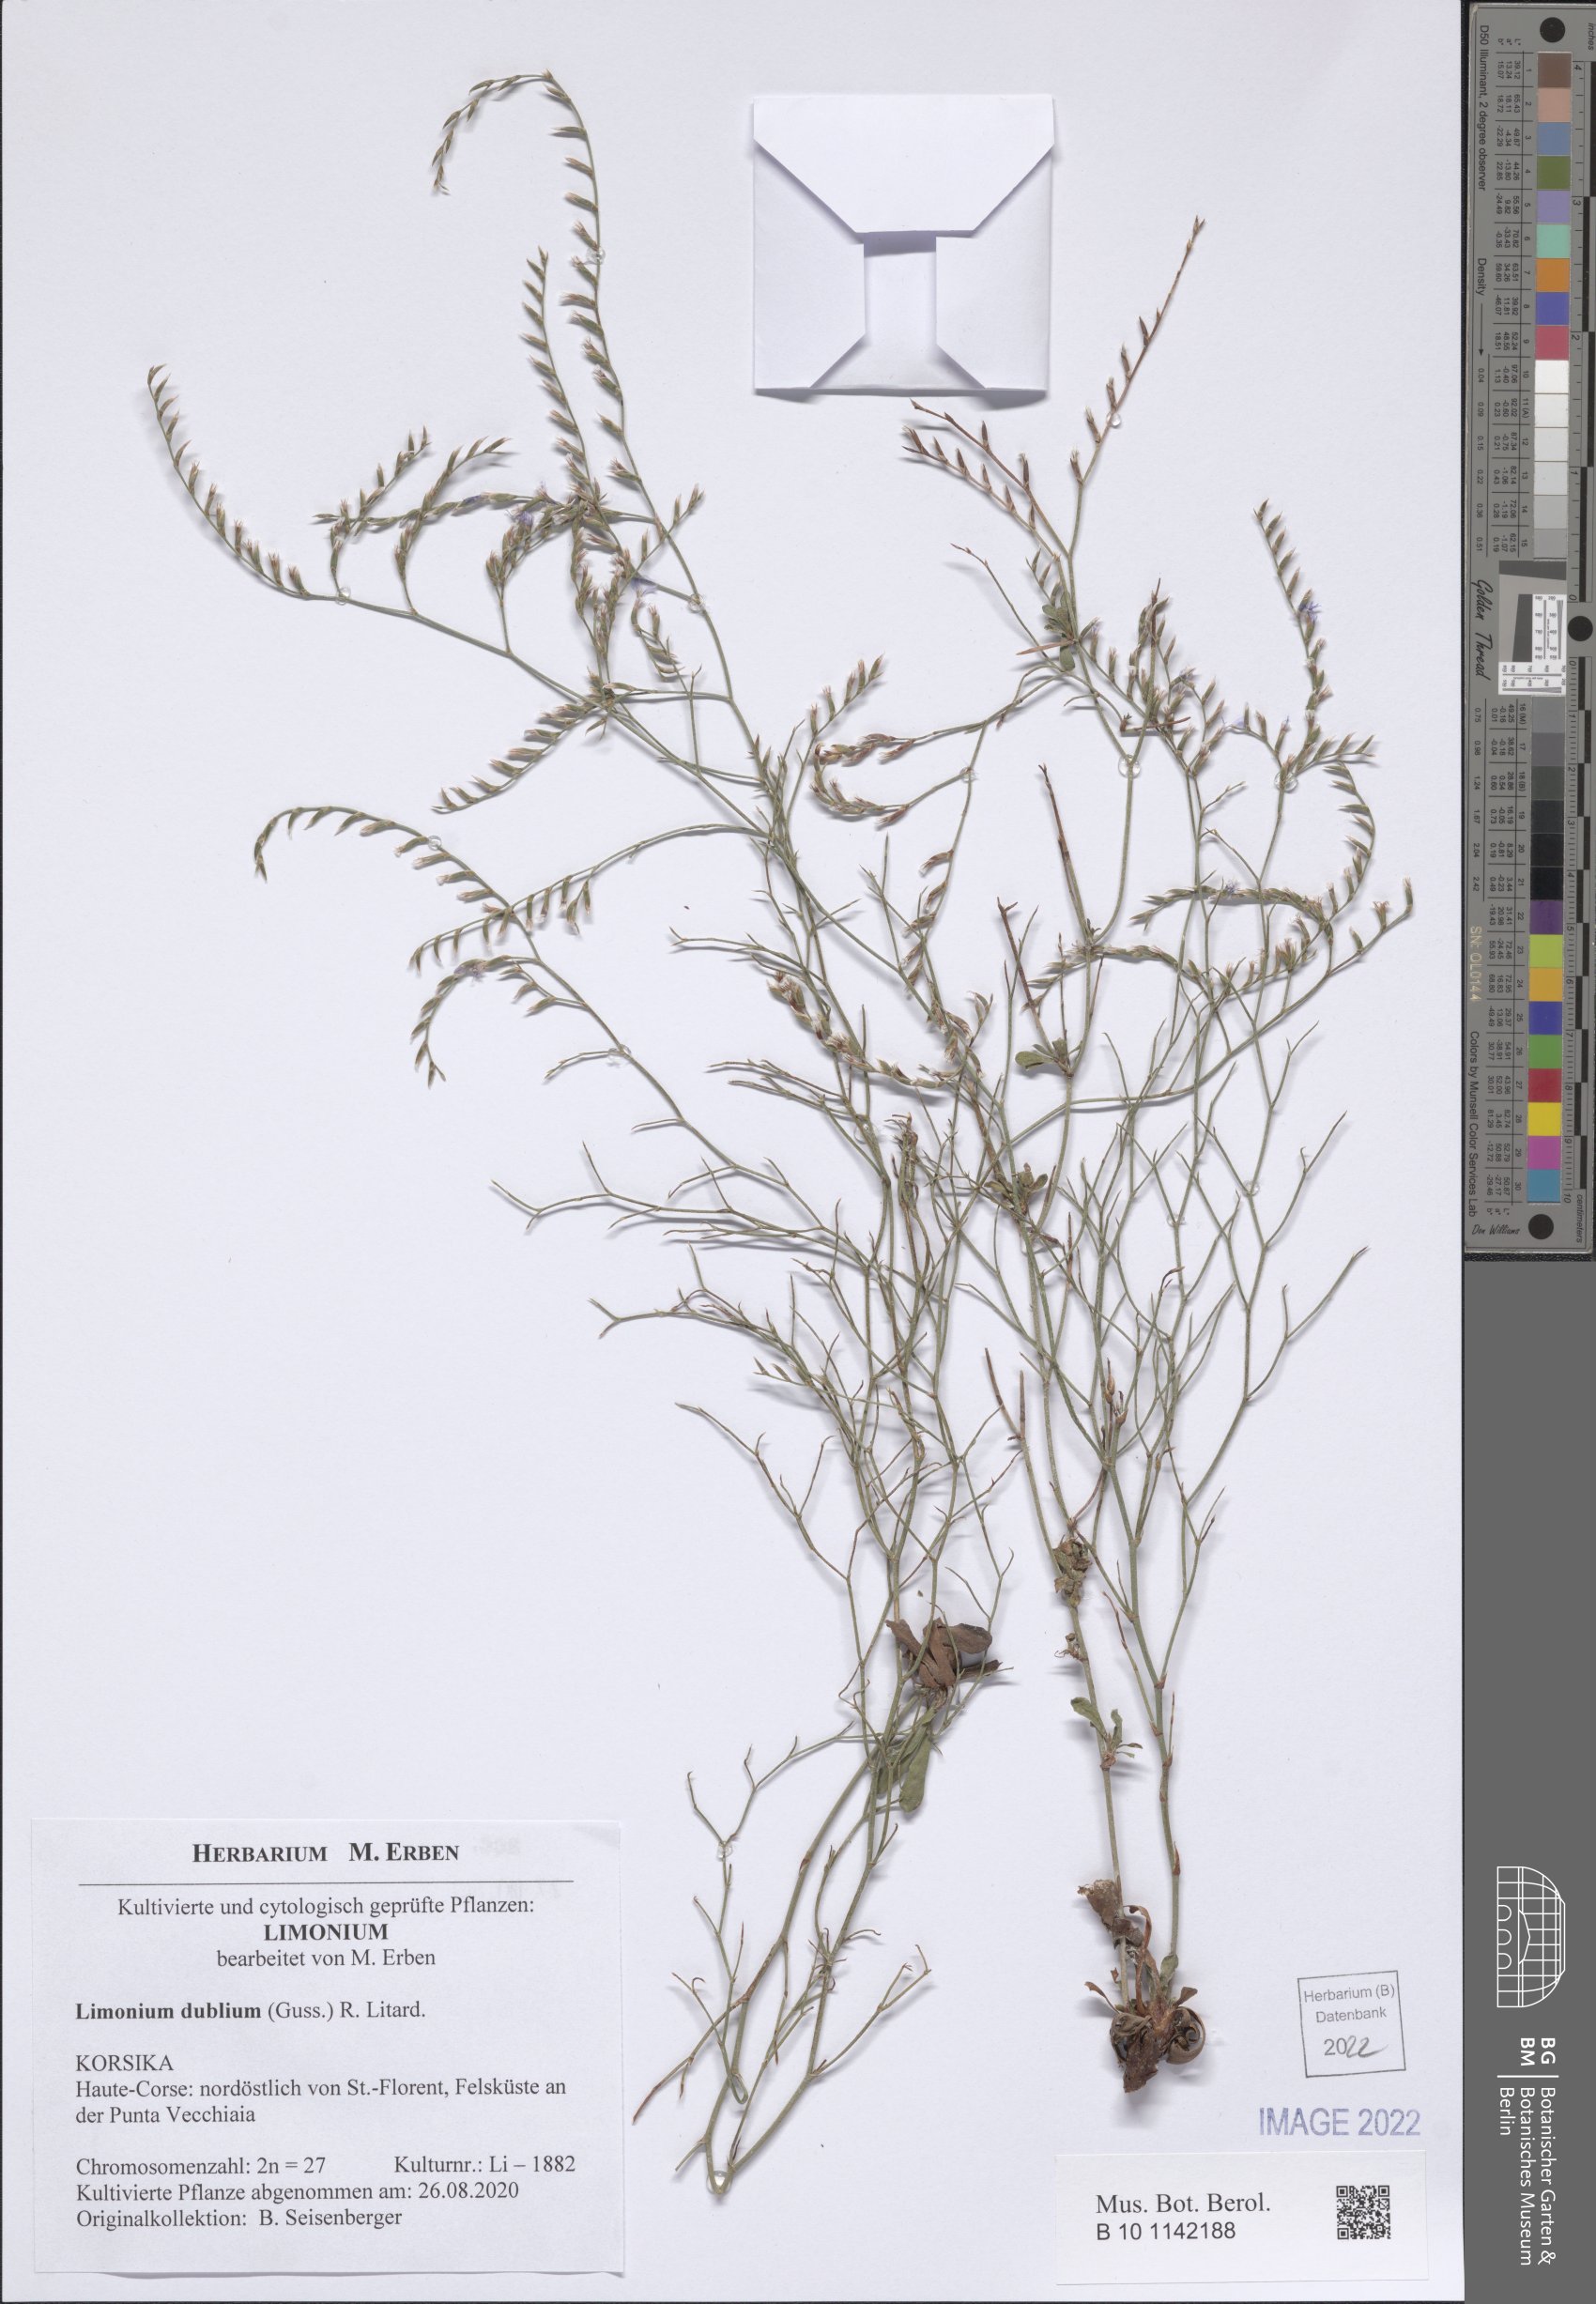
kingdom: Plantae
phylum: Tracheophyta
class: Magnoliopsida
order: Caryophyllales
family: Plumbaginaceae
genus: Limonium
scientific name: Limonium dubium
